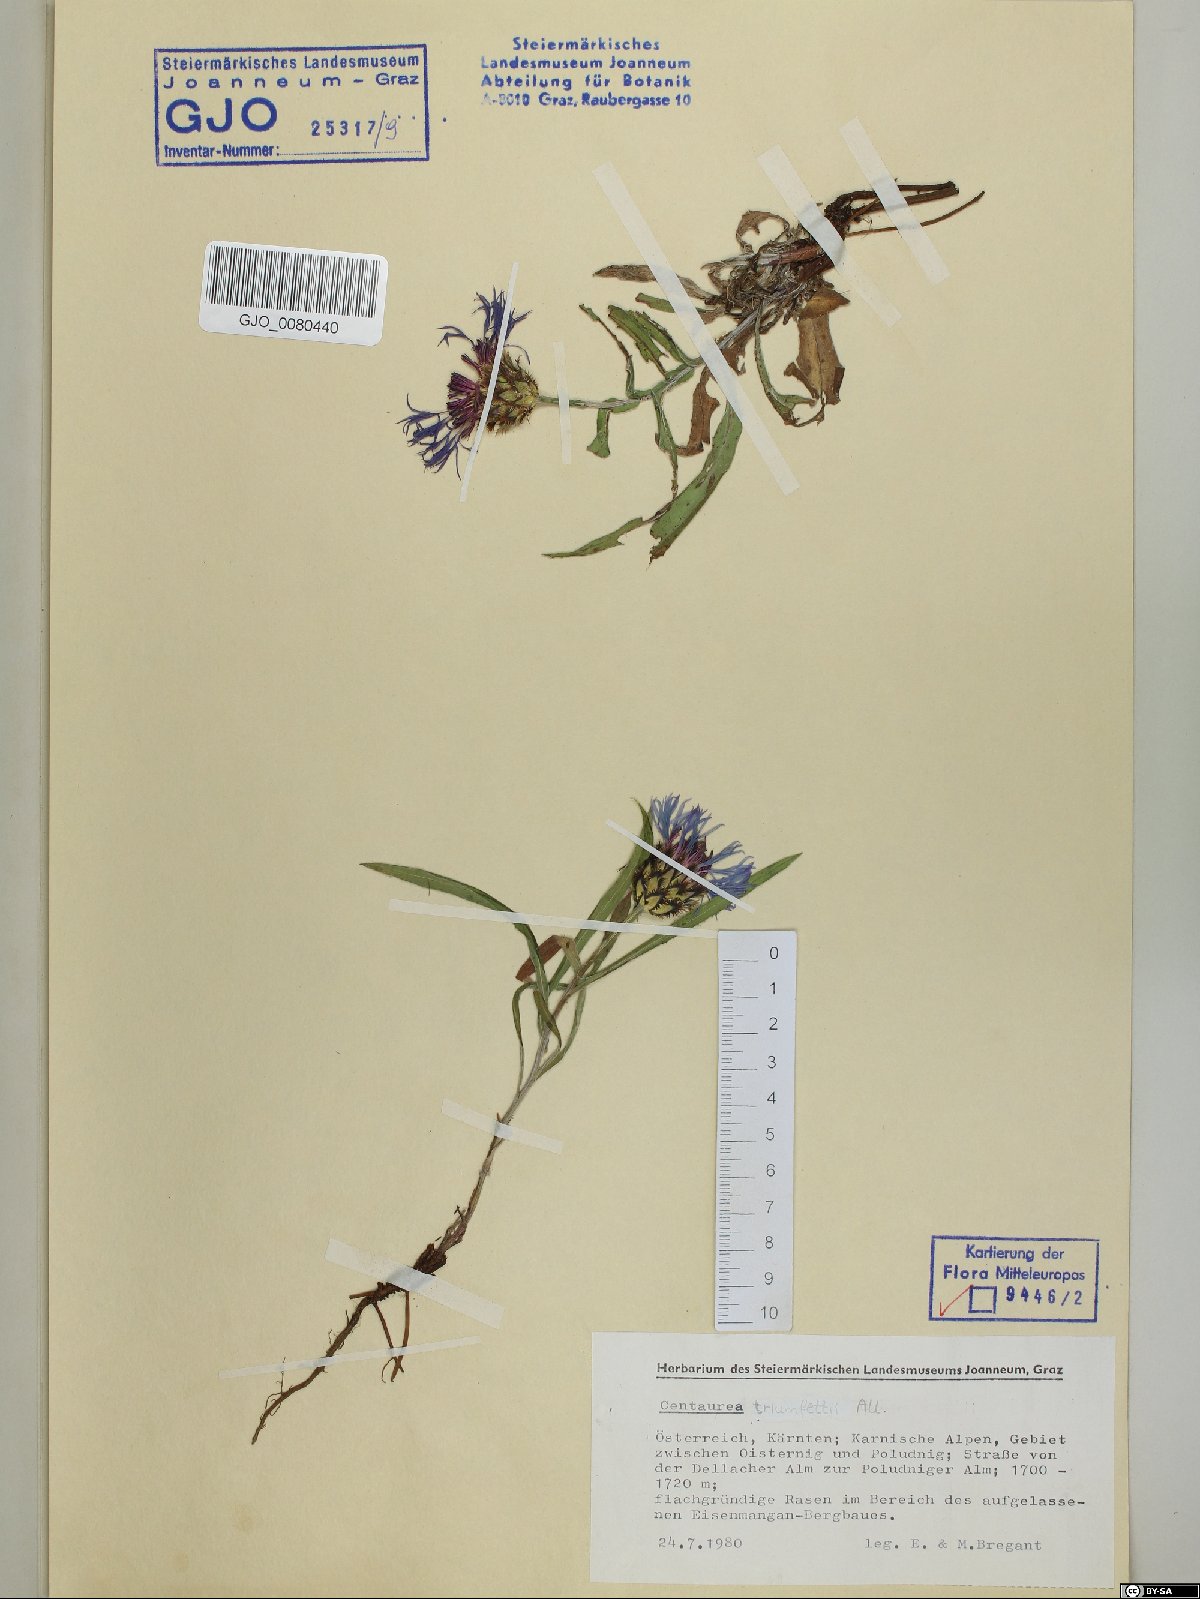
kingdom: Plantae
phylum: Tracheophyta
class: Magnoliopsida
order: Asterales
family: Asteraceae
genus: Centaurea
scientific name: Centaurea triumfettii
